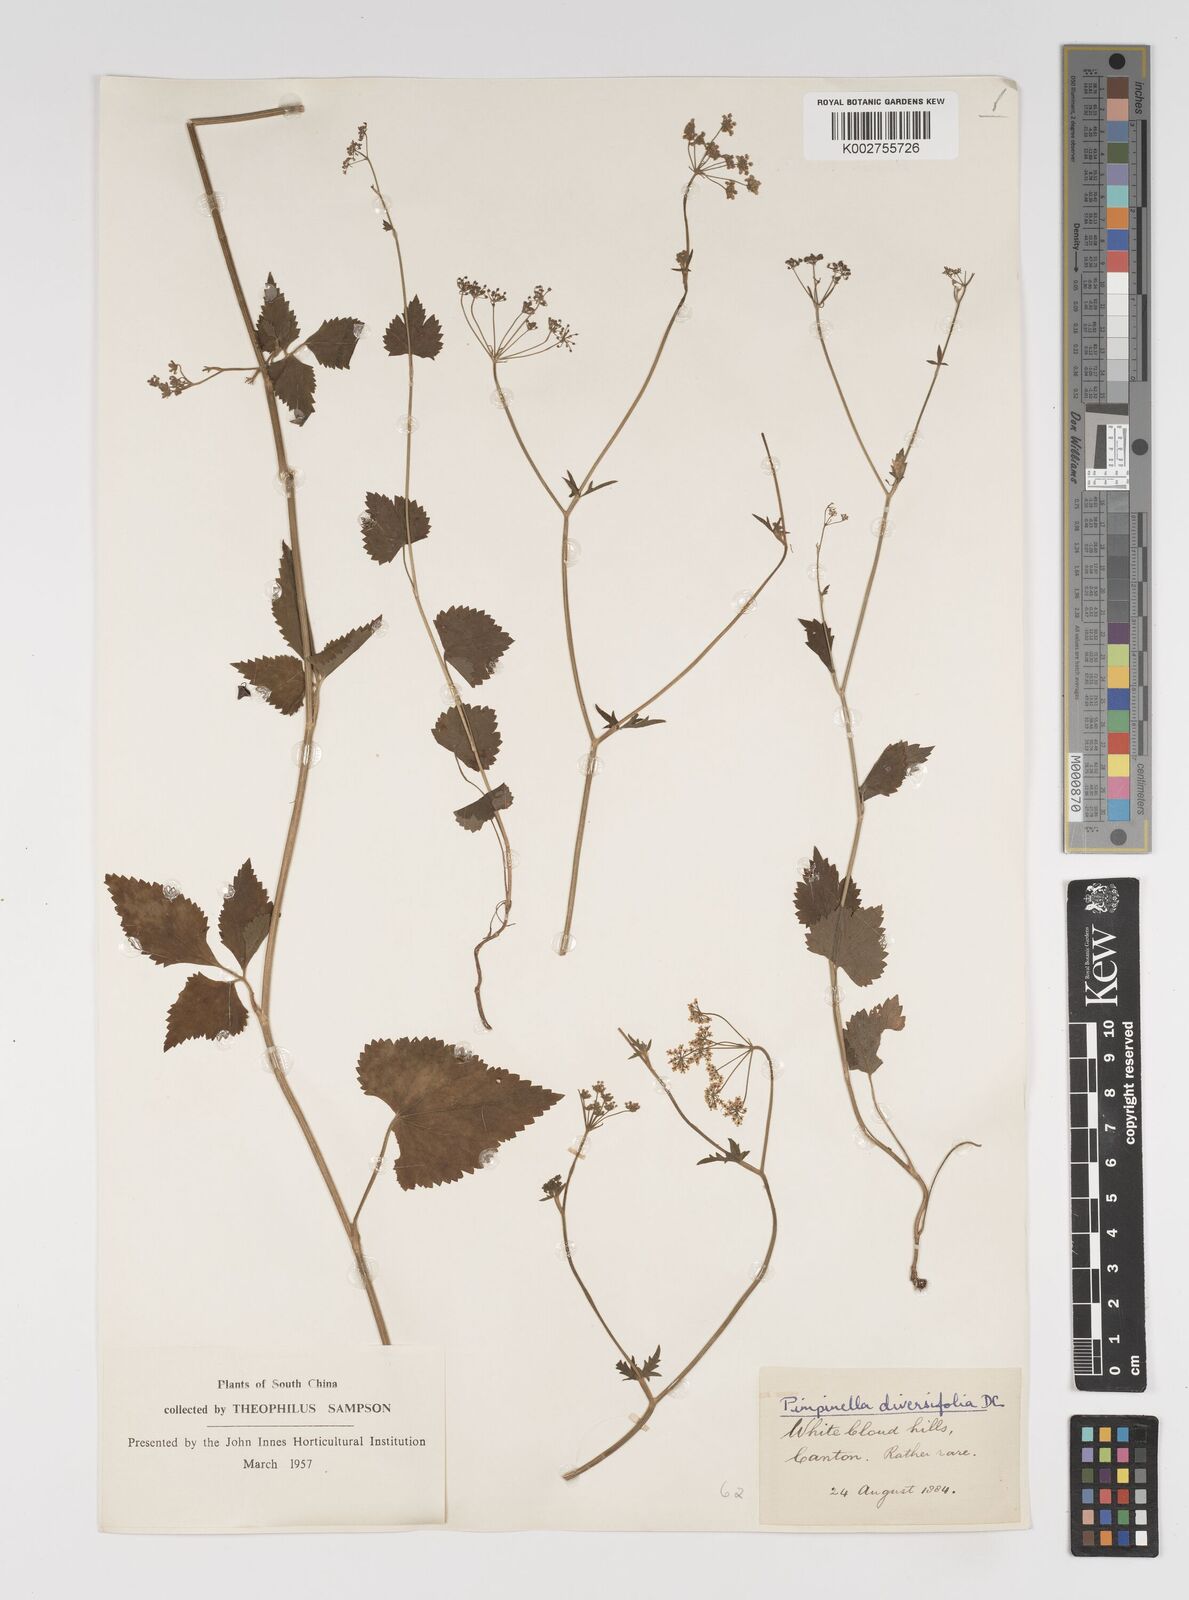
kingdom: Plantae
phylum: Tracheophyta
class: Magnoliopsida
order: Apiales
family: Apiaceae
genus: Pimpinella
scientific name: Pimpinella diversifolia
